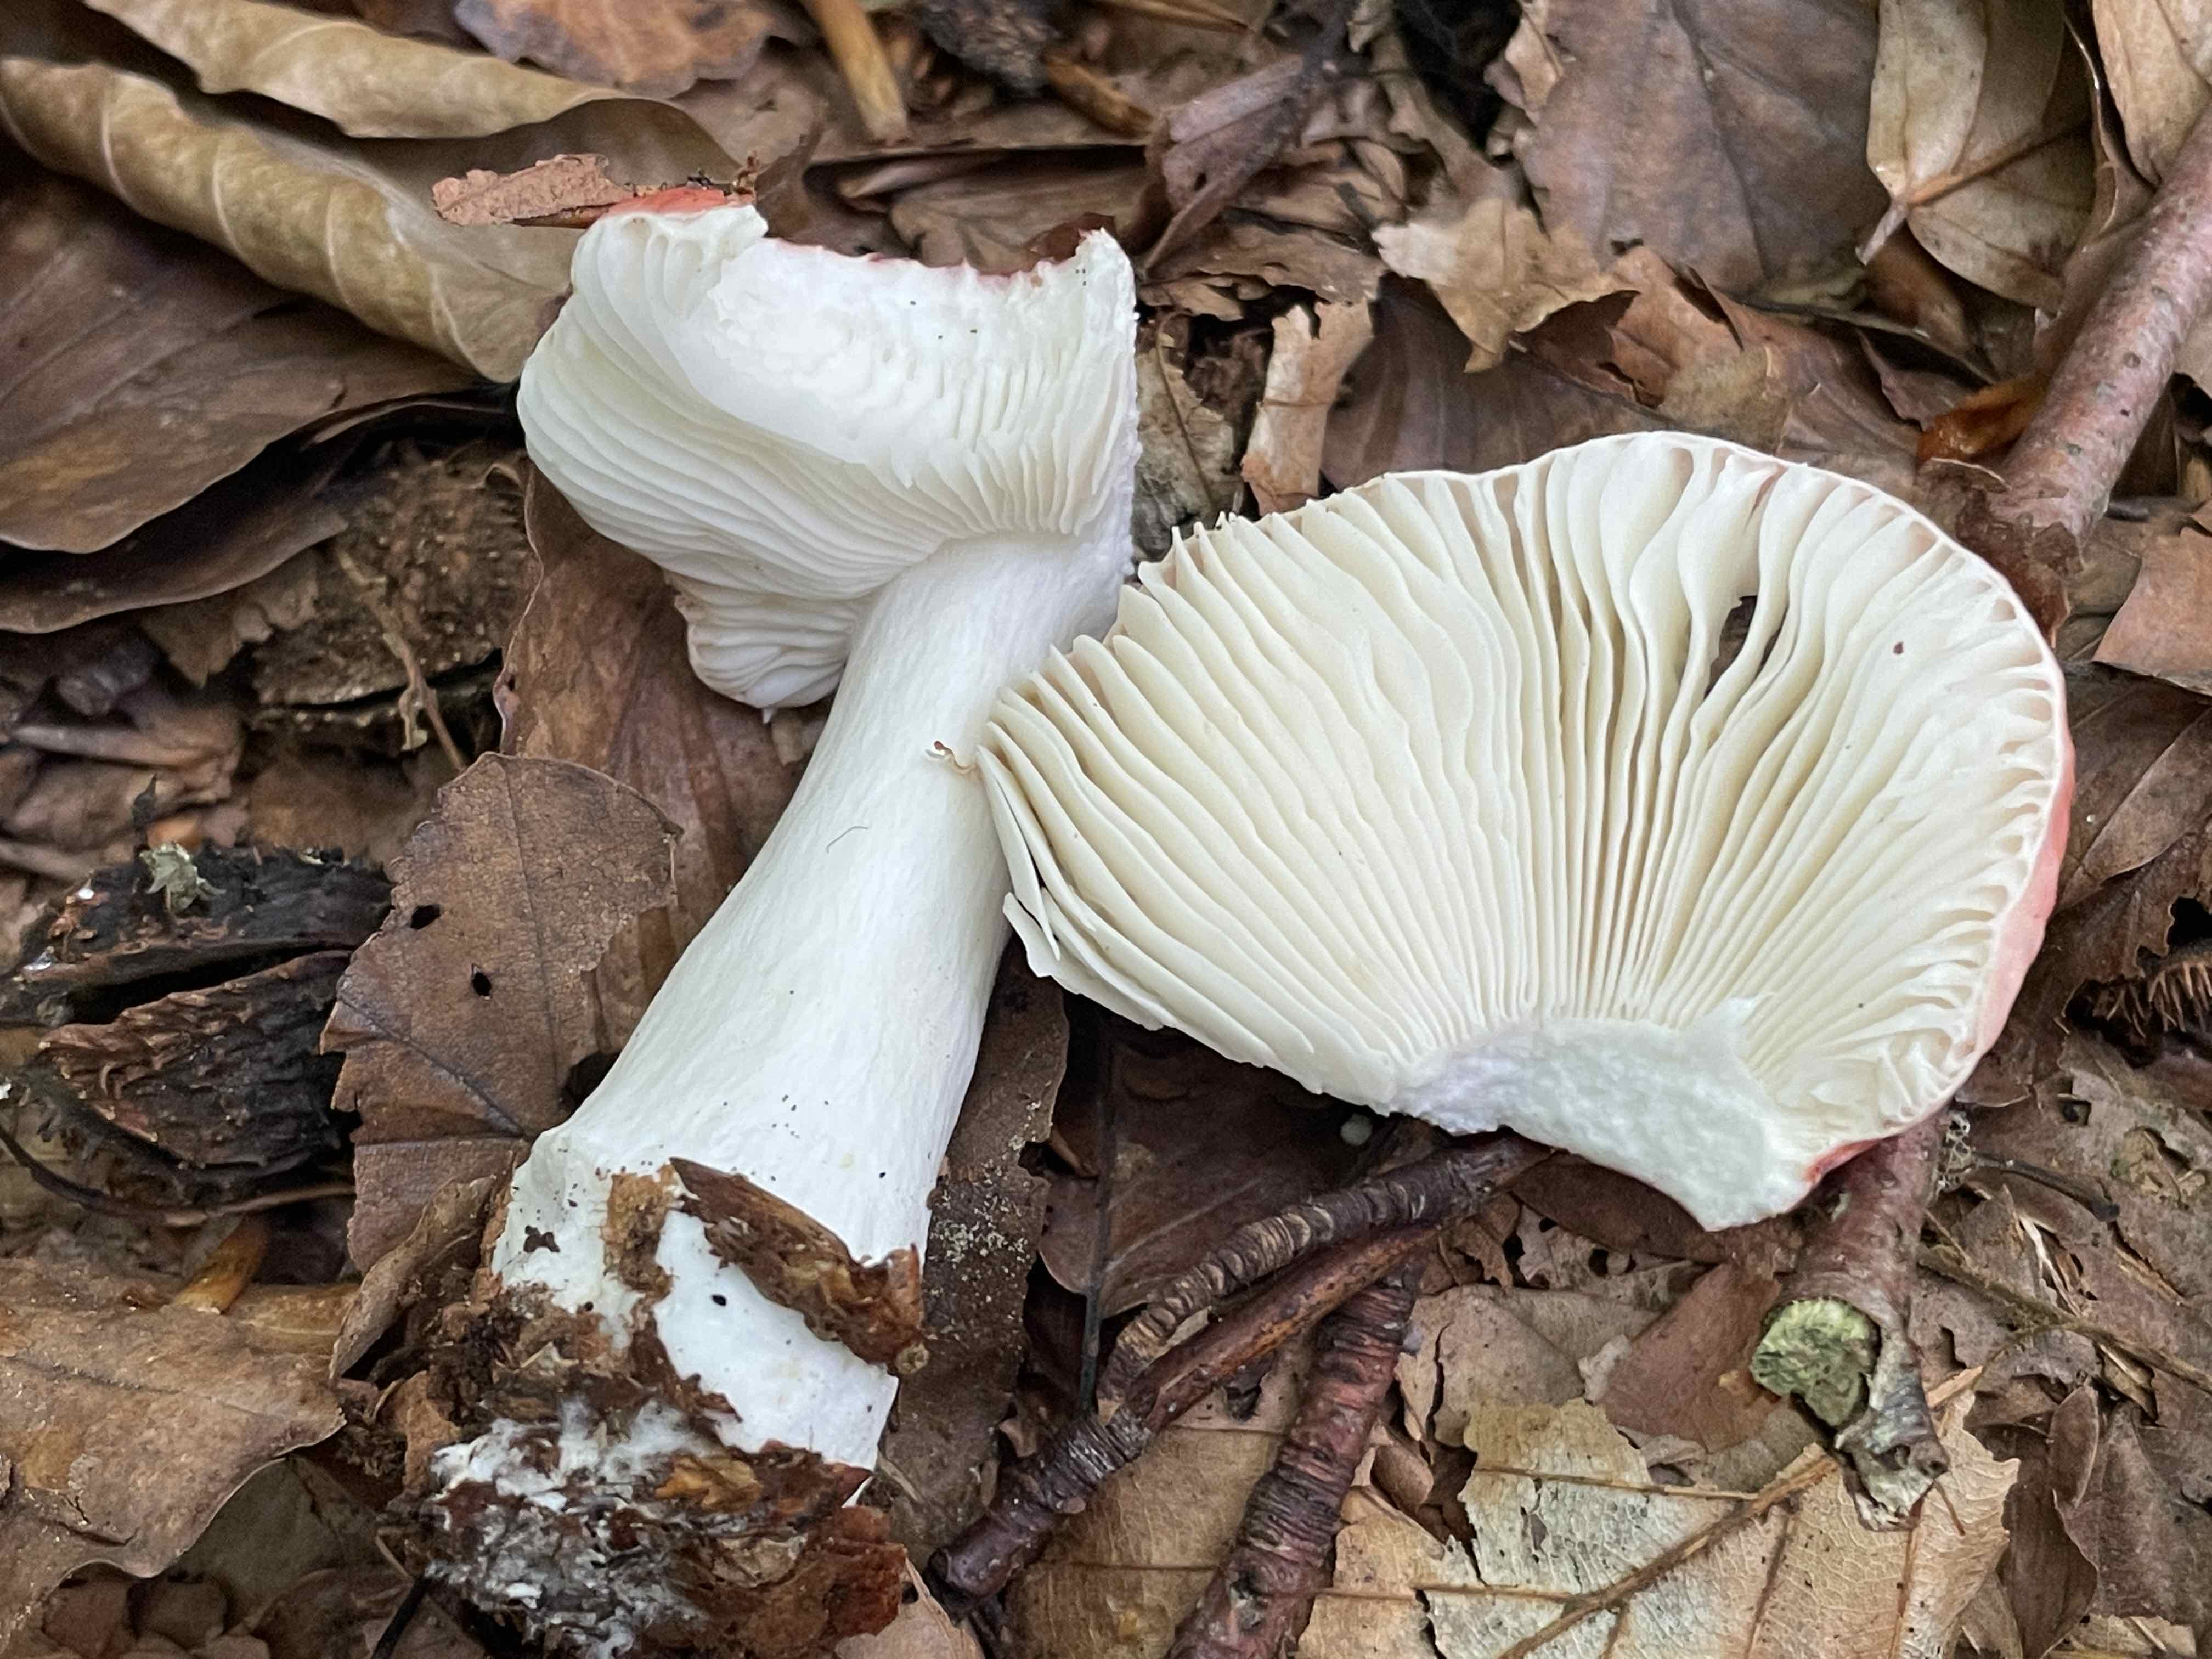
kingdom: Fungi
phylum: Basidiomycota
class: Agaricomycetes
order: Russulales
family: Russulaceae
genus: Russula
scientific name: Russula silvestris
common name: mellemstor gift-skørhat
